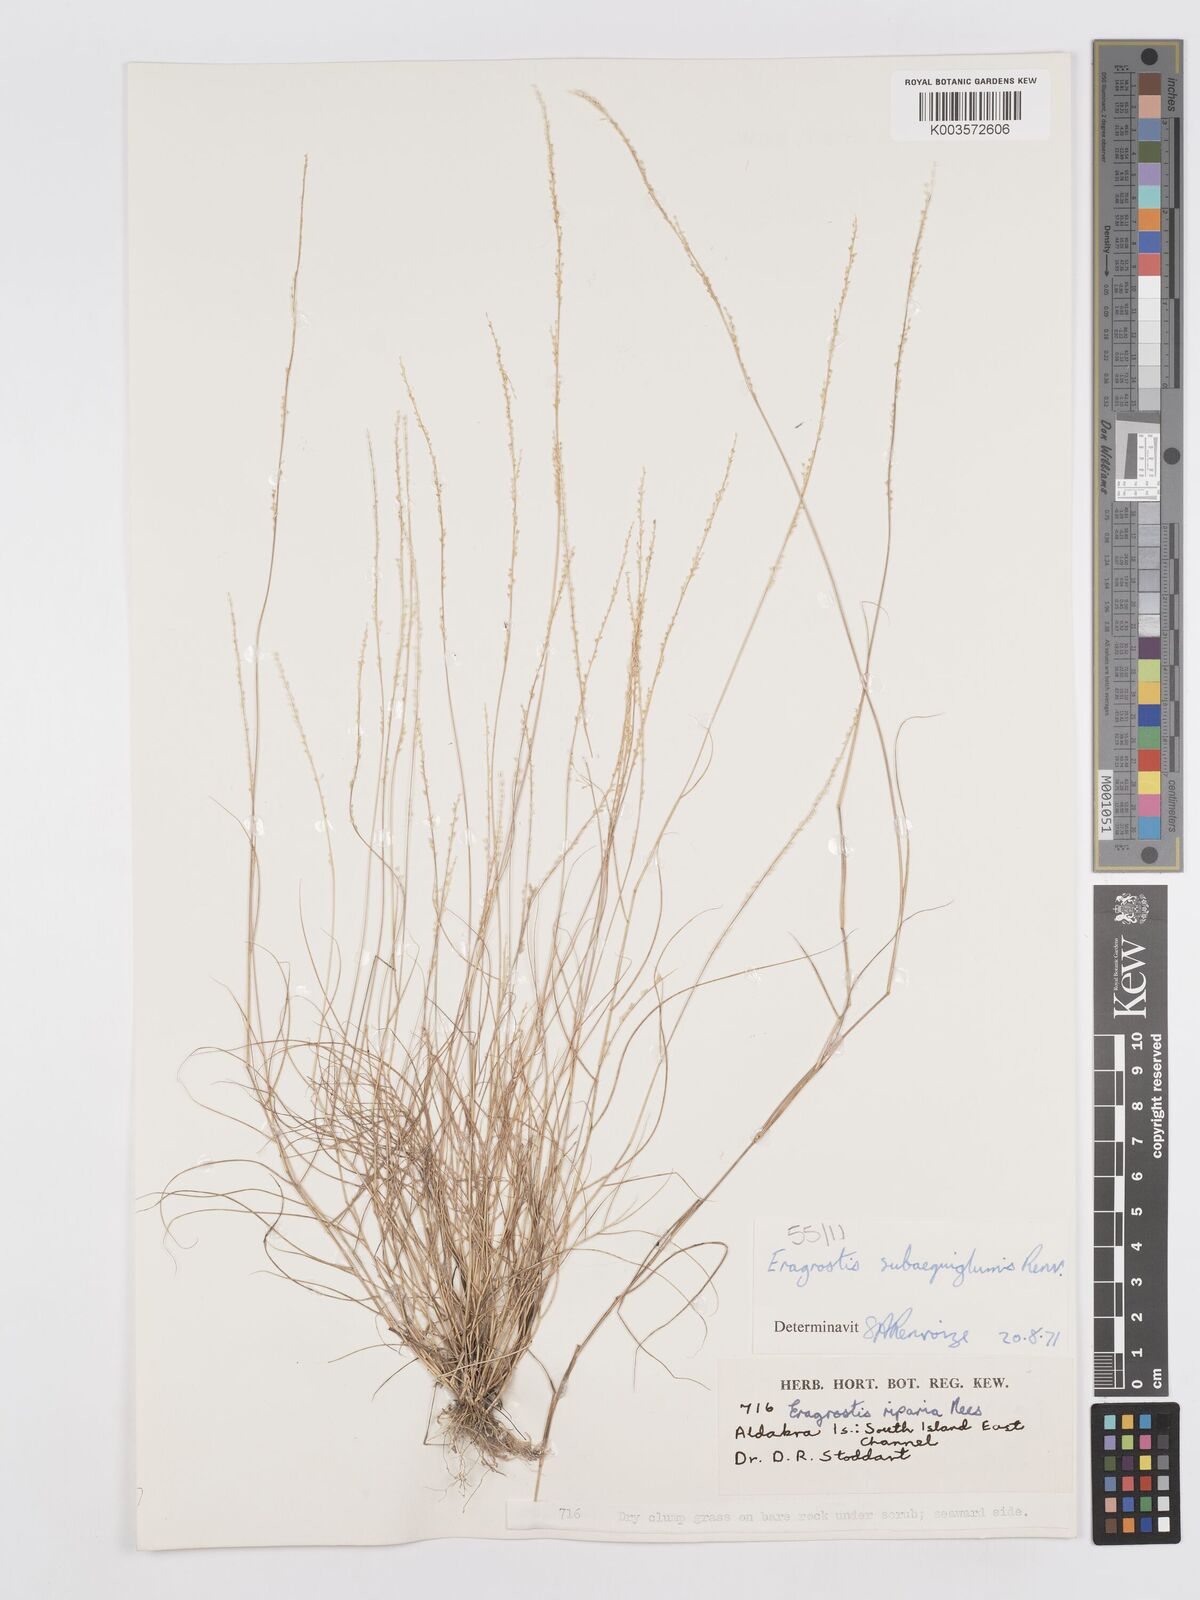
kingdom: Plantae
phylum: Tracheophyta
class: Liliopsida
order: Poales
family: Poaceae
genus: Eragrostis
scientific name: Eragrostis subaequiglumis
